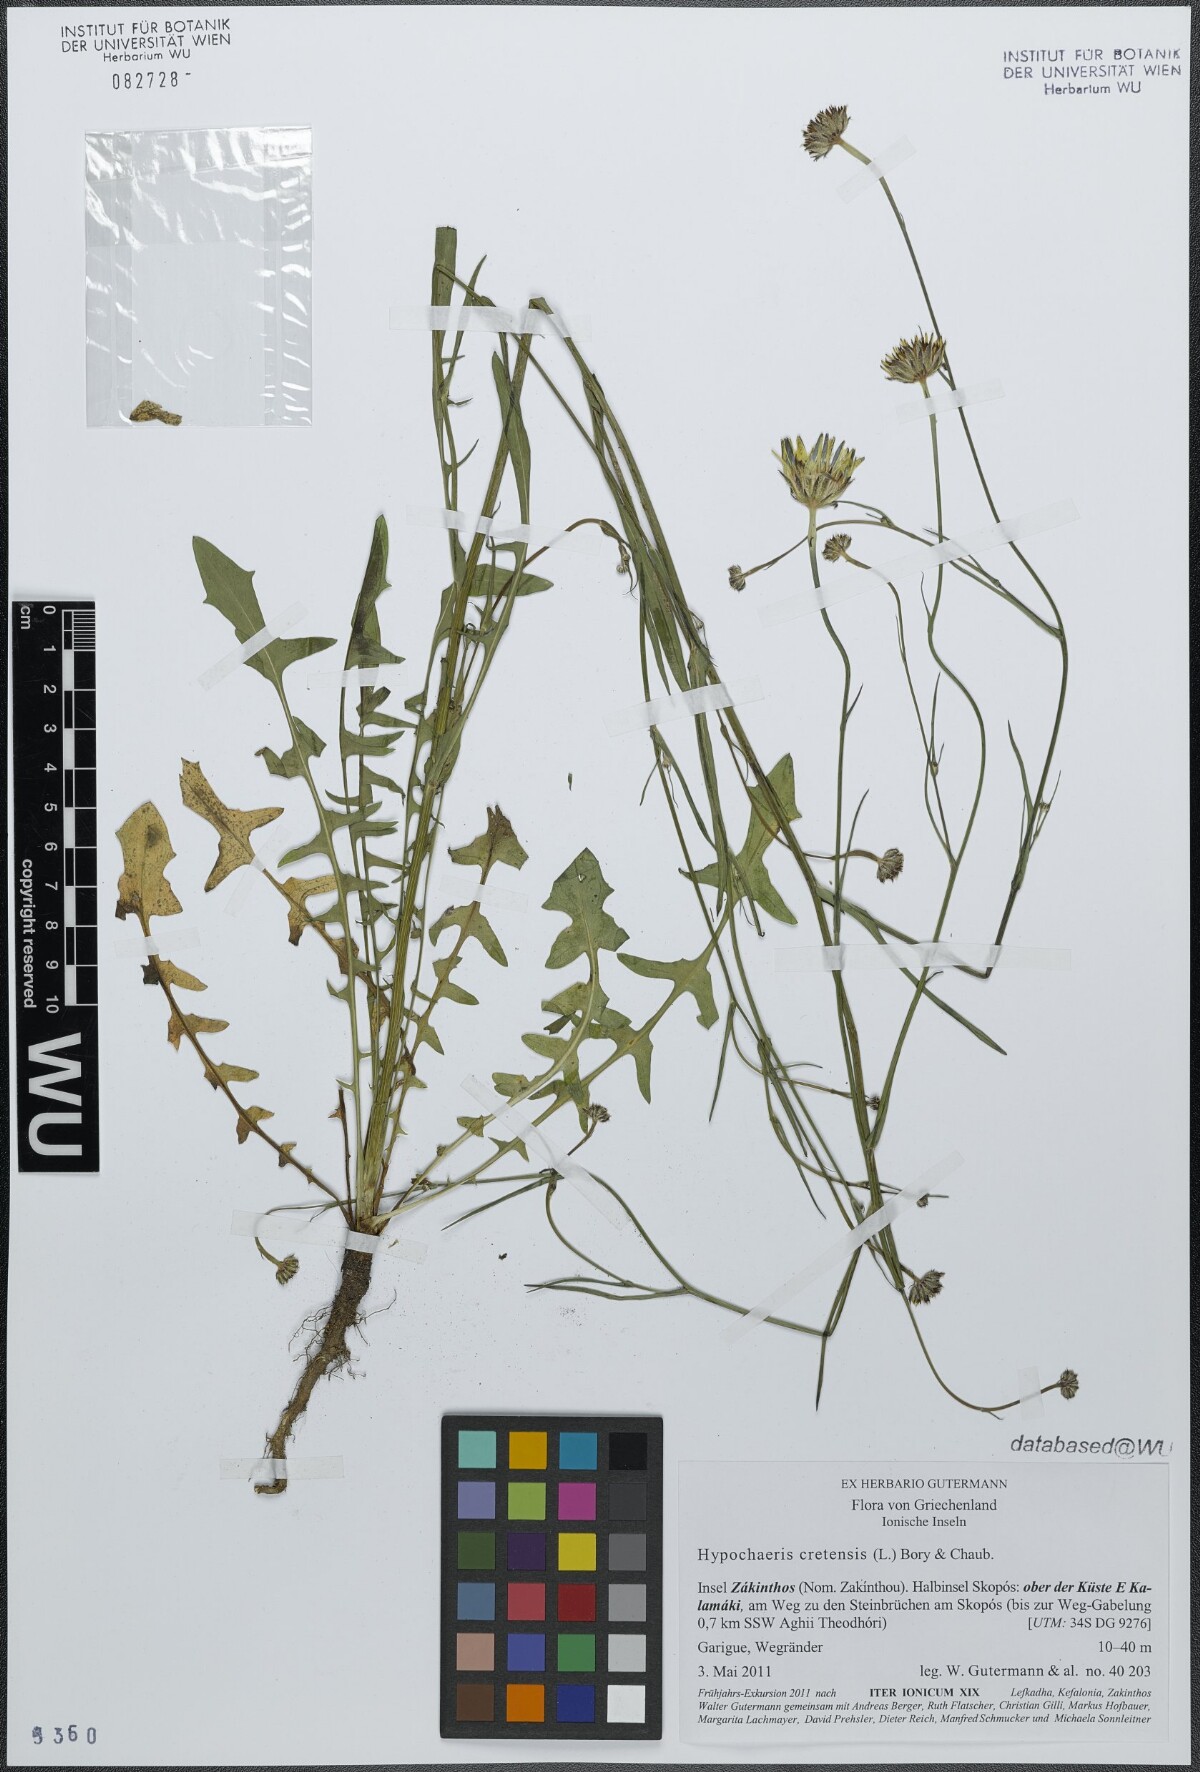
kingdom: Plantae
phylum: Tracheophyta
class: Magnoliopsida
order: Asterales
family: Asteraceae
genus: Hypochaeris
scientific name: Hypochaeris cretensis
